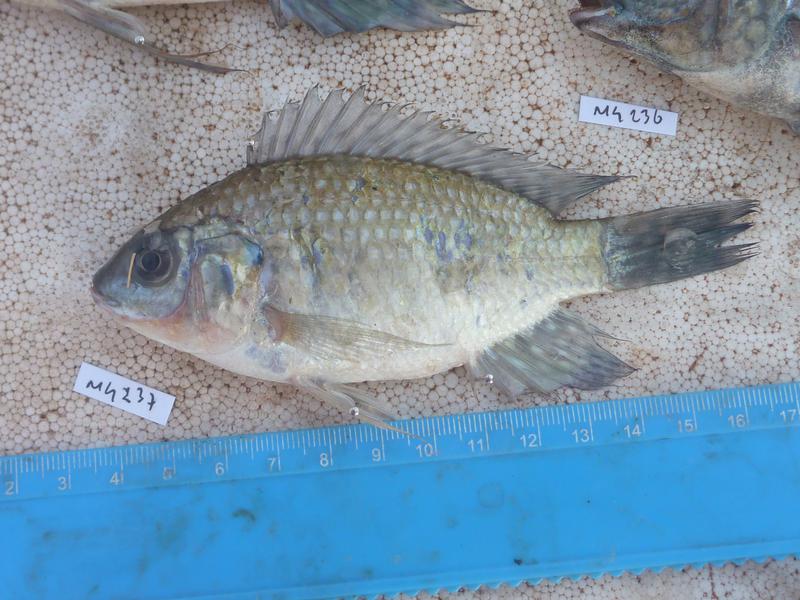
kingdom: Animalia
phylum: Chordata
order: Perciformes
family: Cichlidae
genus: Oreochromis
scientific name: Oreochromis leucostictus
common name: Blue spotted tilapia
